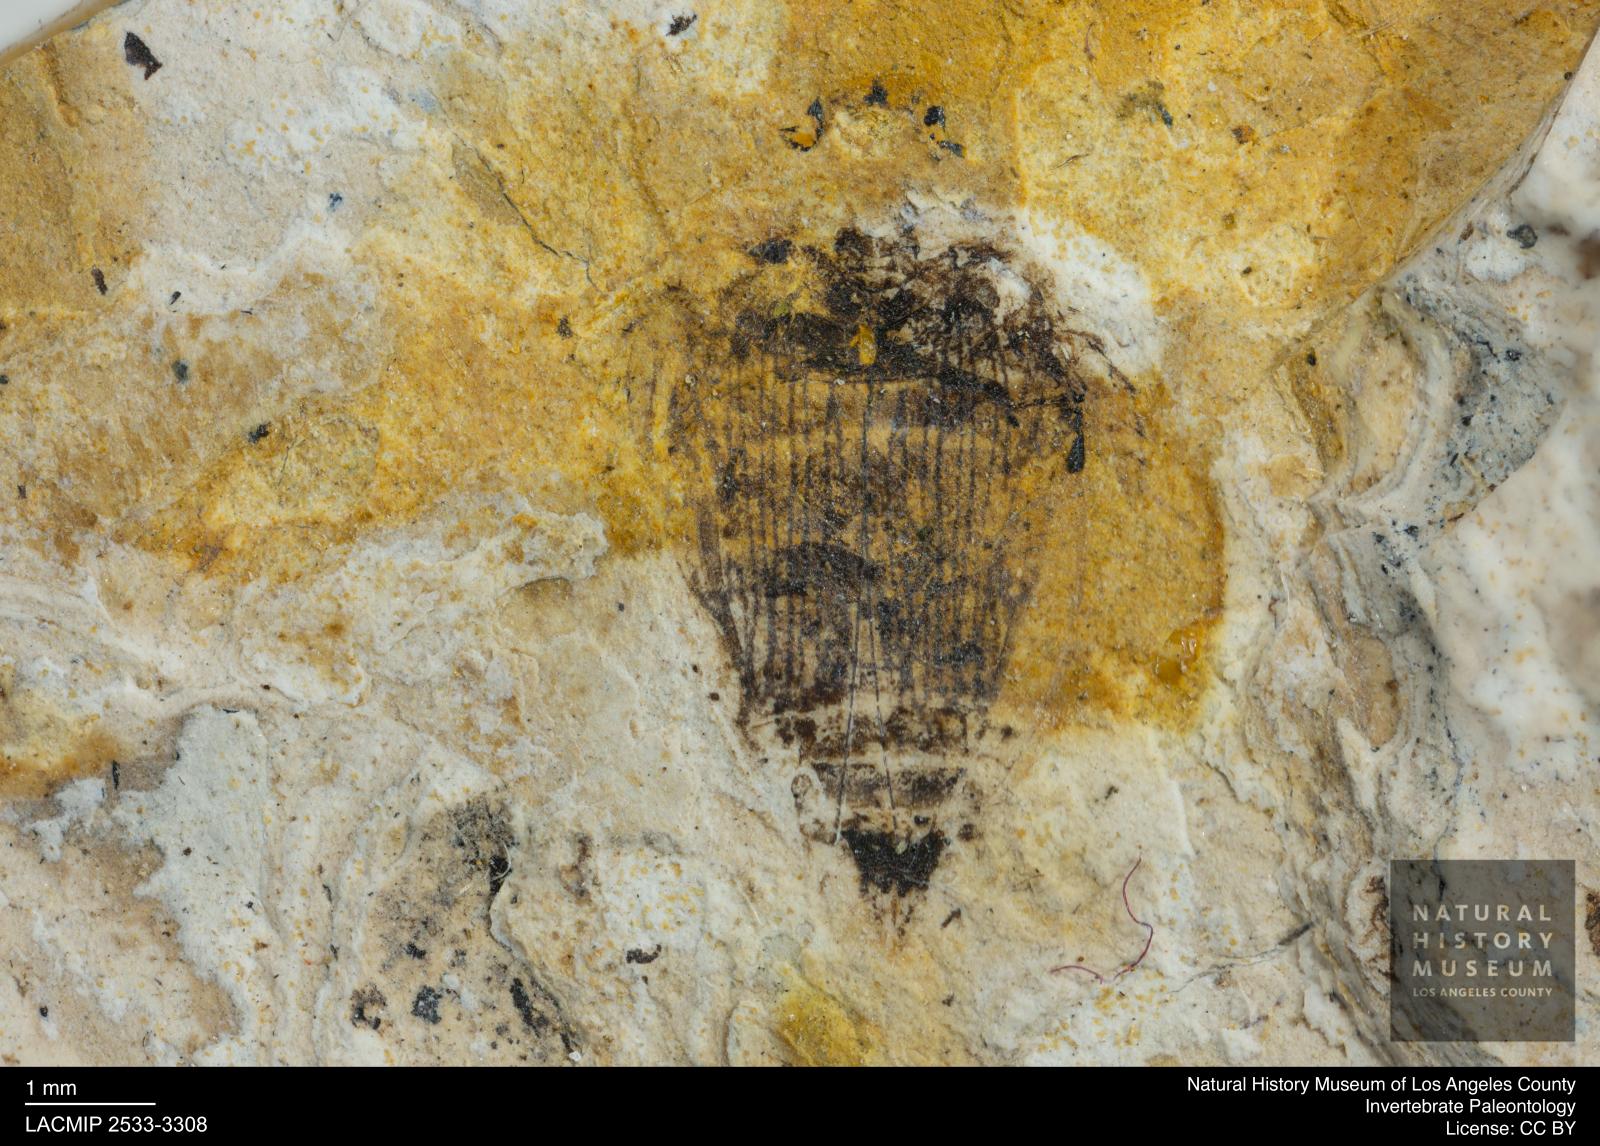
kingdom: Animalia
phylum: Arthropoda
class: Insecta
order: Coleoptera
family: Dytiscidae
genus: Laccophilus
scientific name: Laccophilus Palaeogyrinus strigatus
